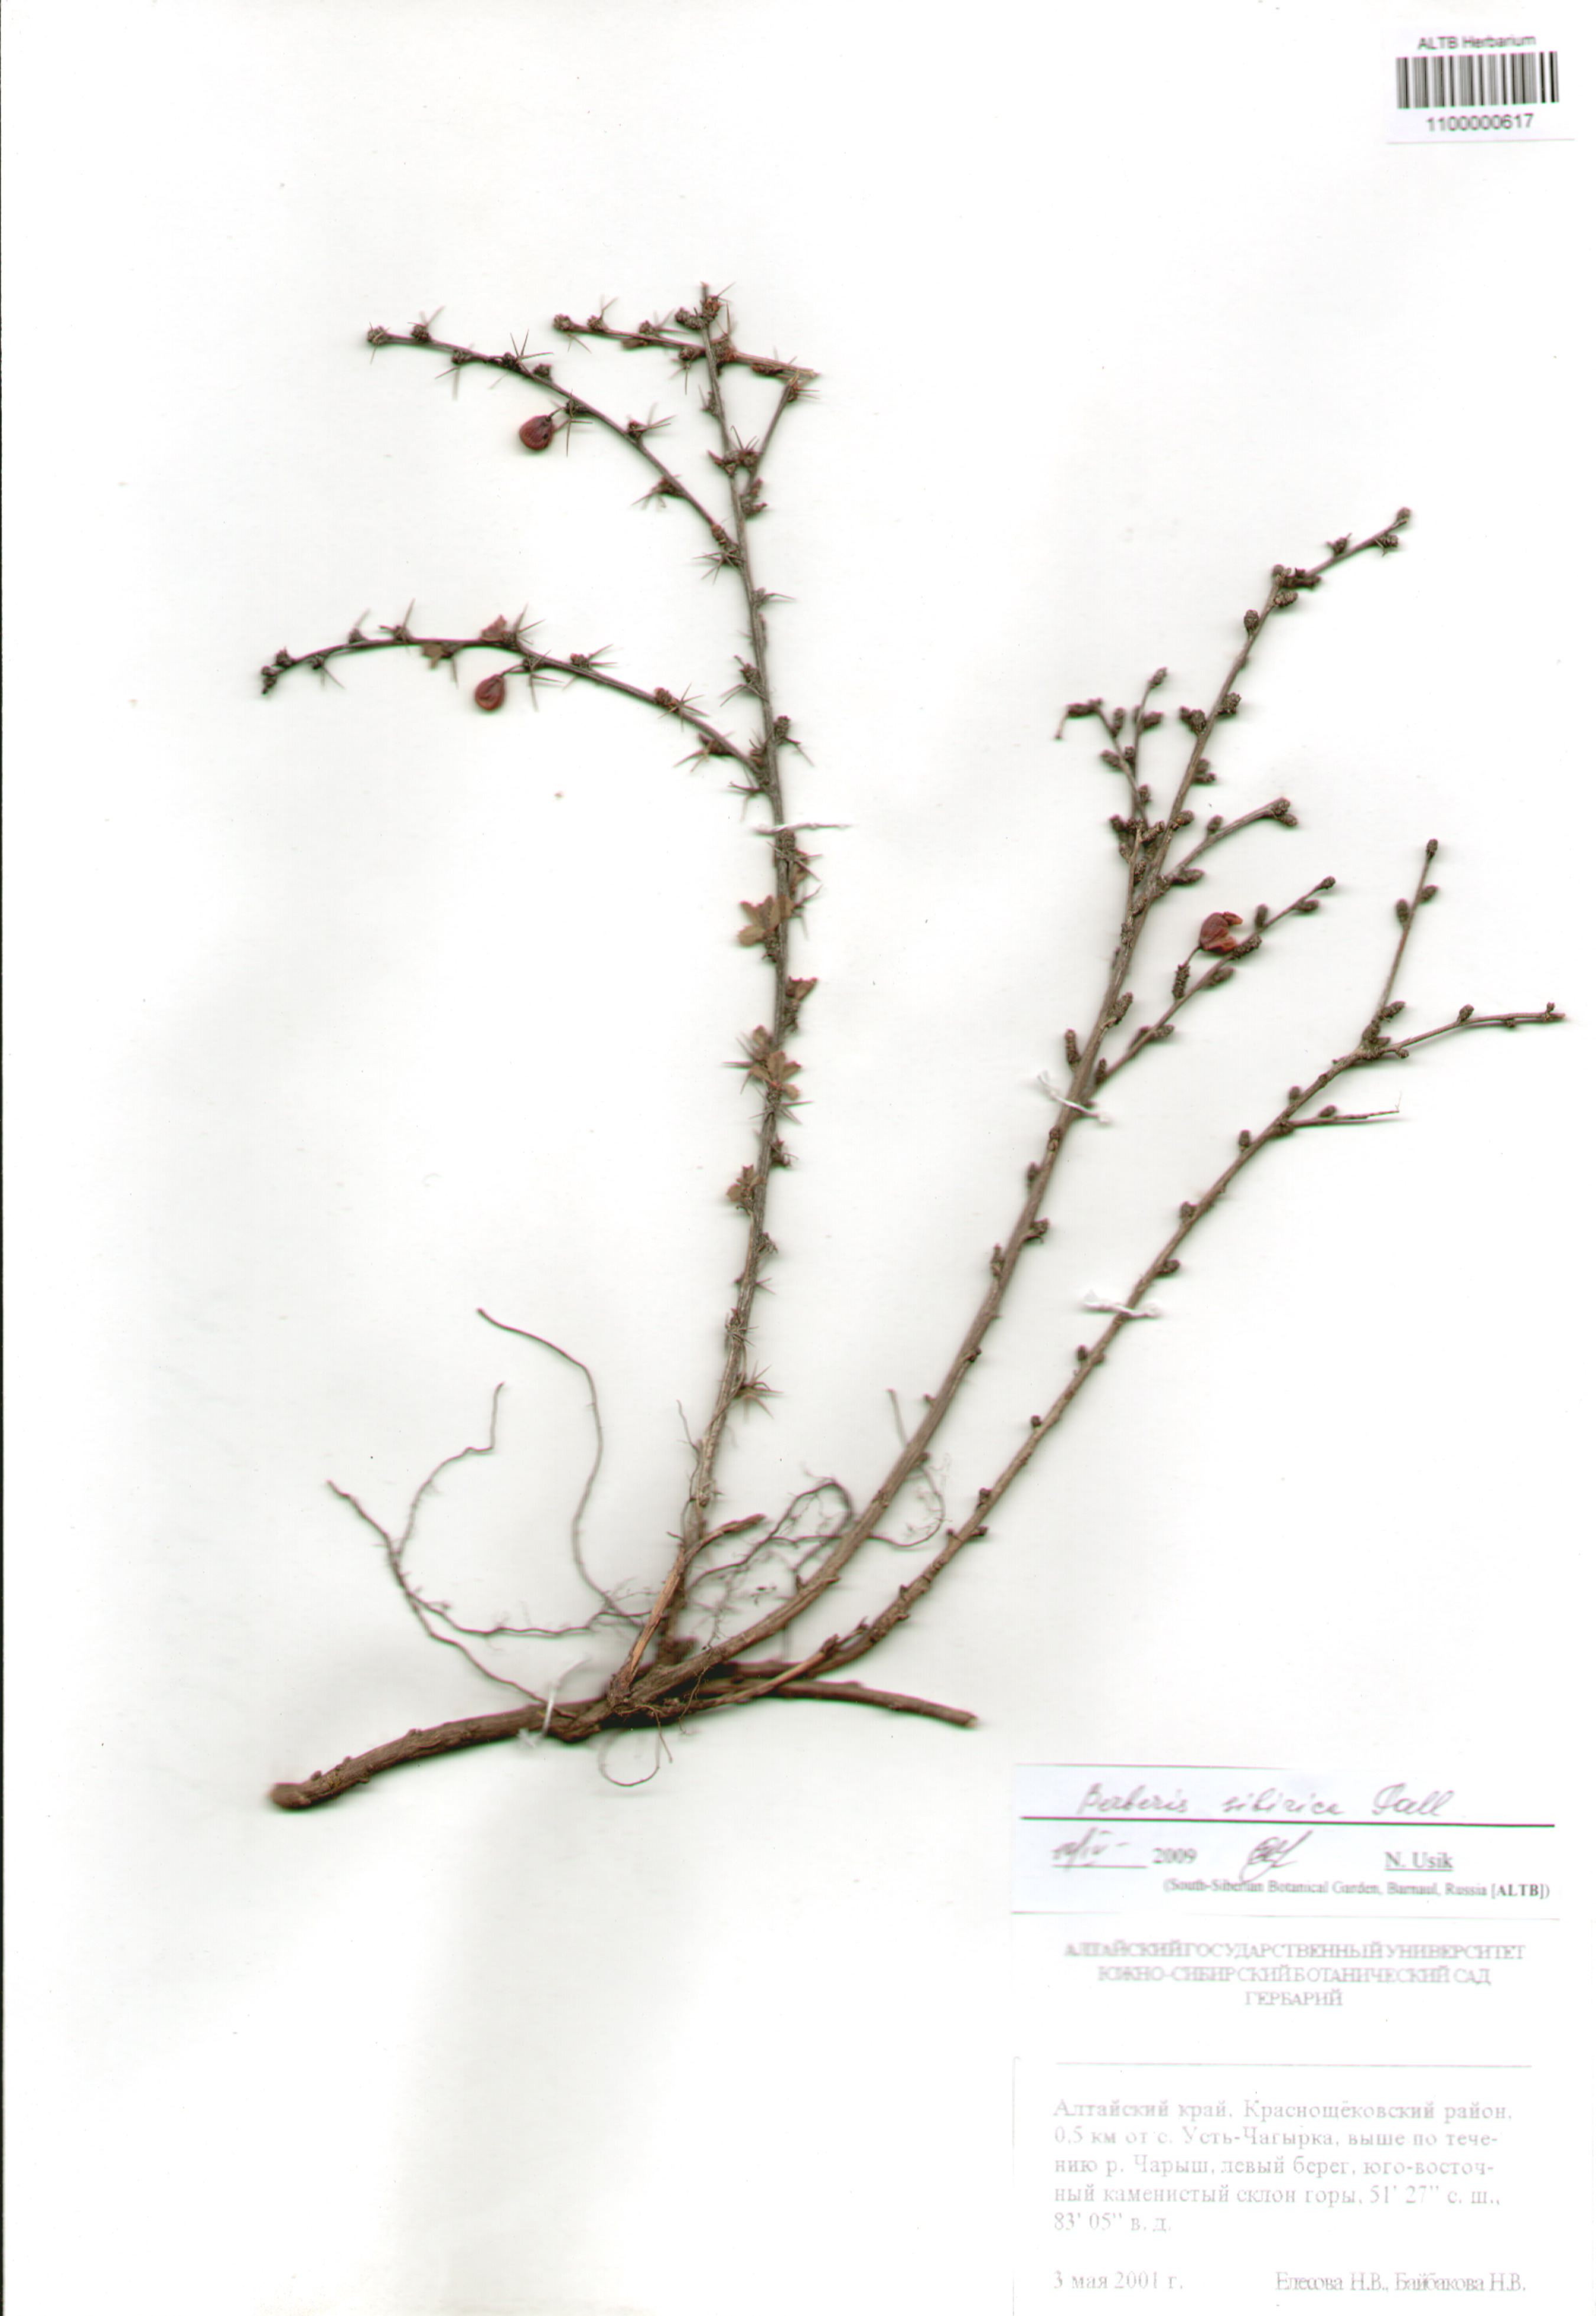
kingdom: Plantae
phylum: Tracheophyta
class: Magnoliopsida
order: Ranunculales
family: Berberidaceae
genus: Berberis
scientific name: Berberis sibirica
